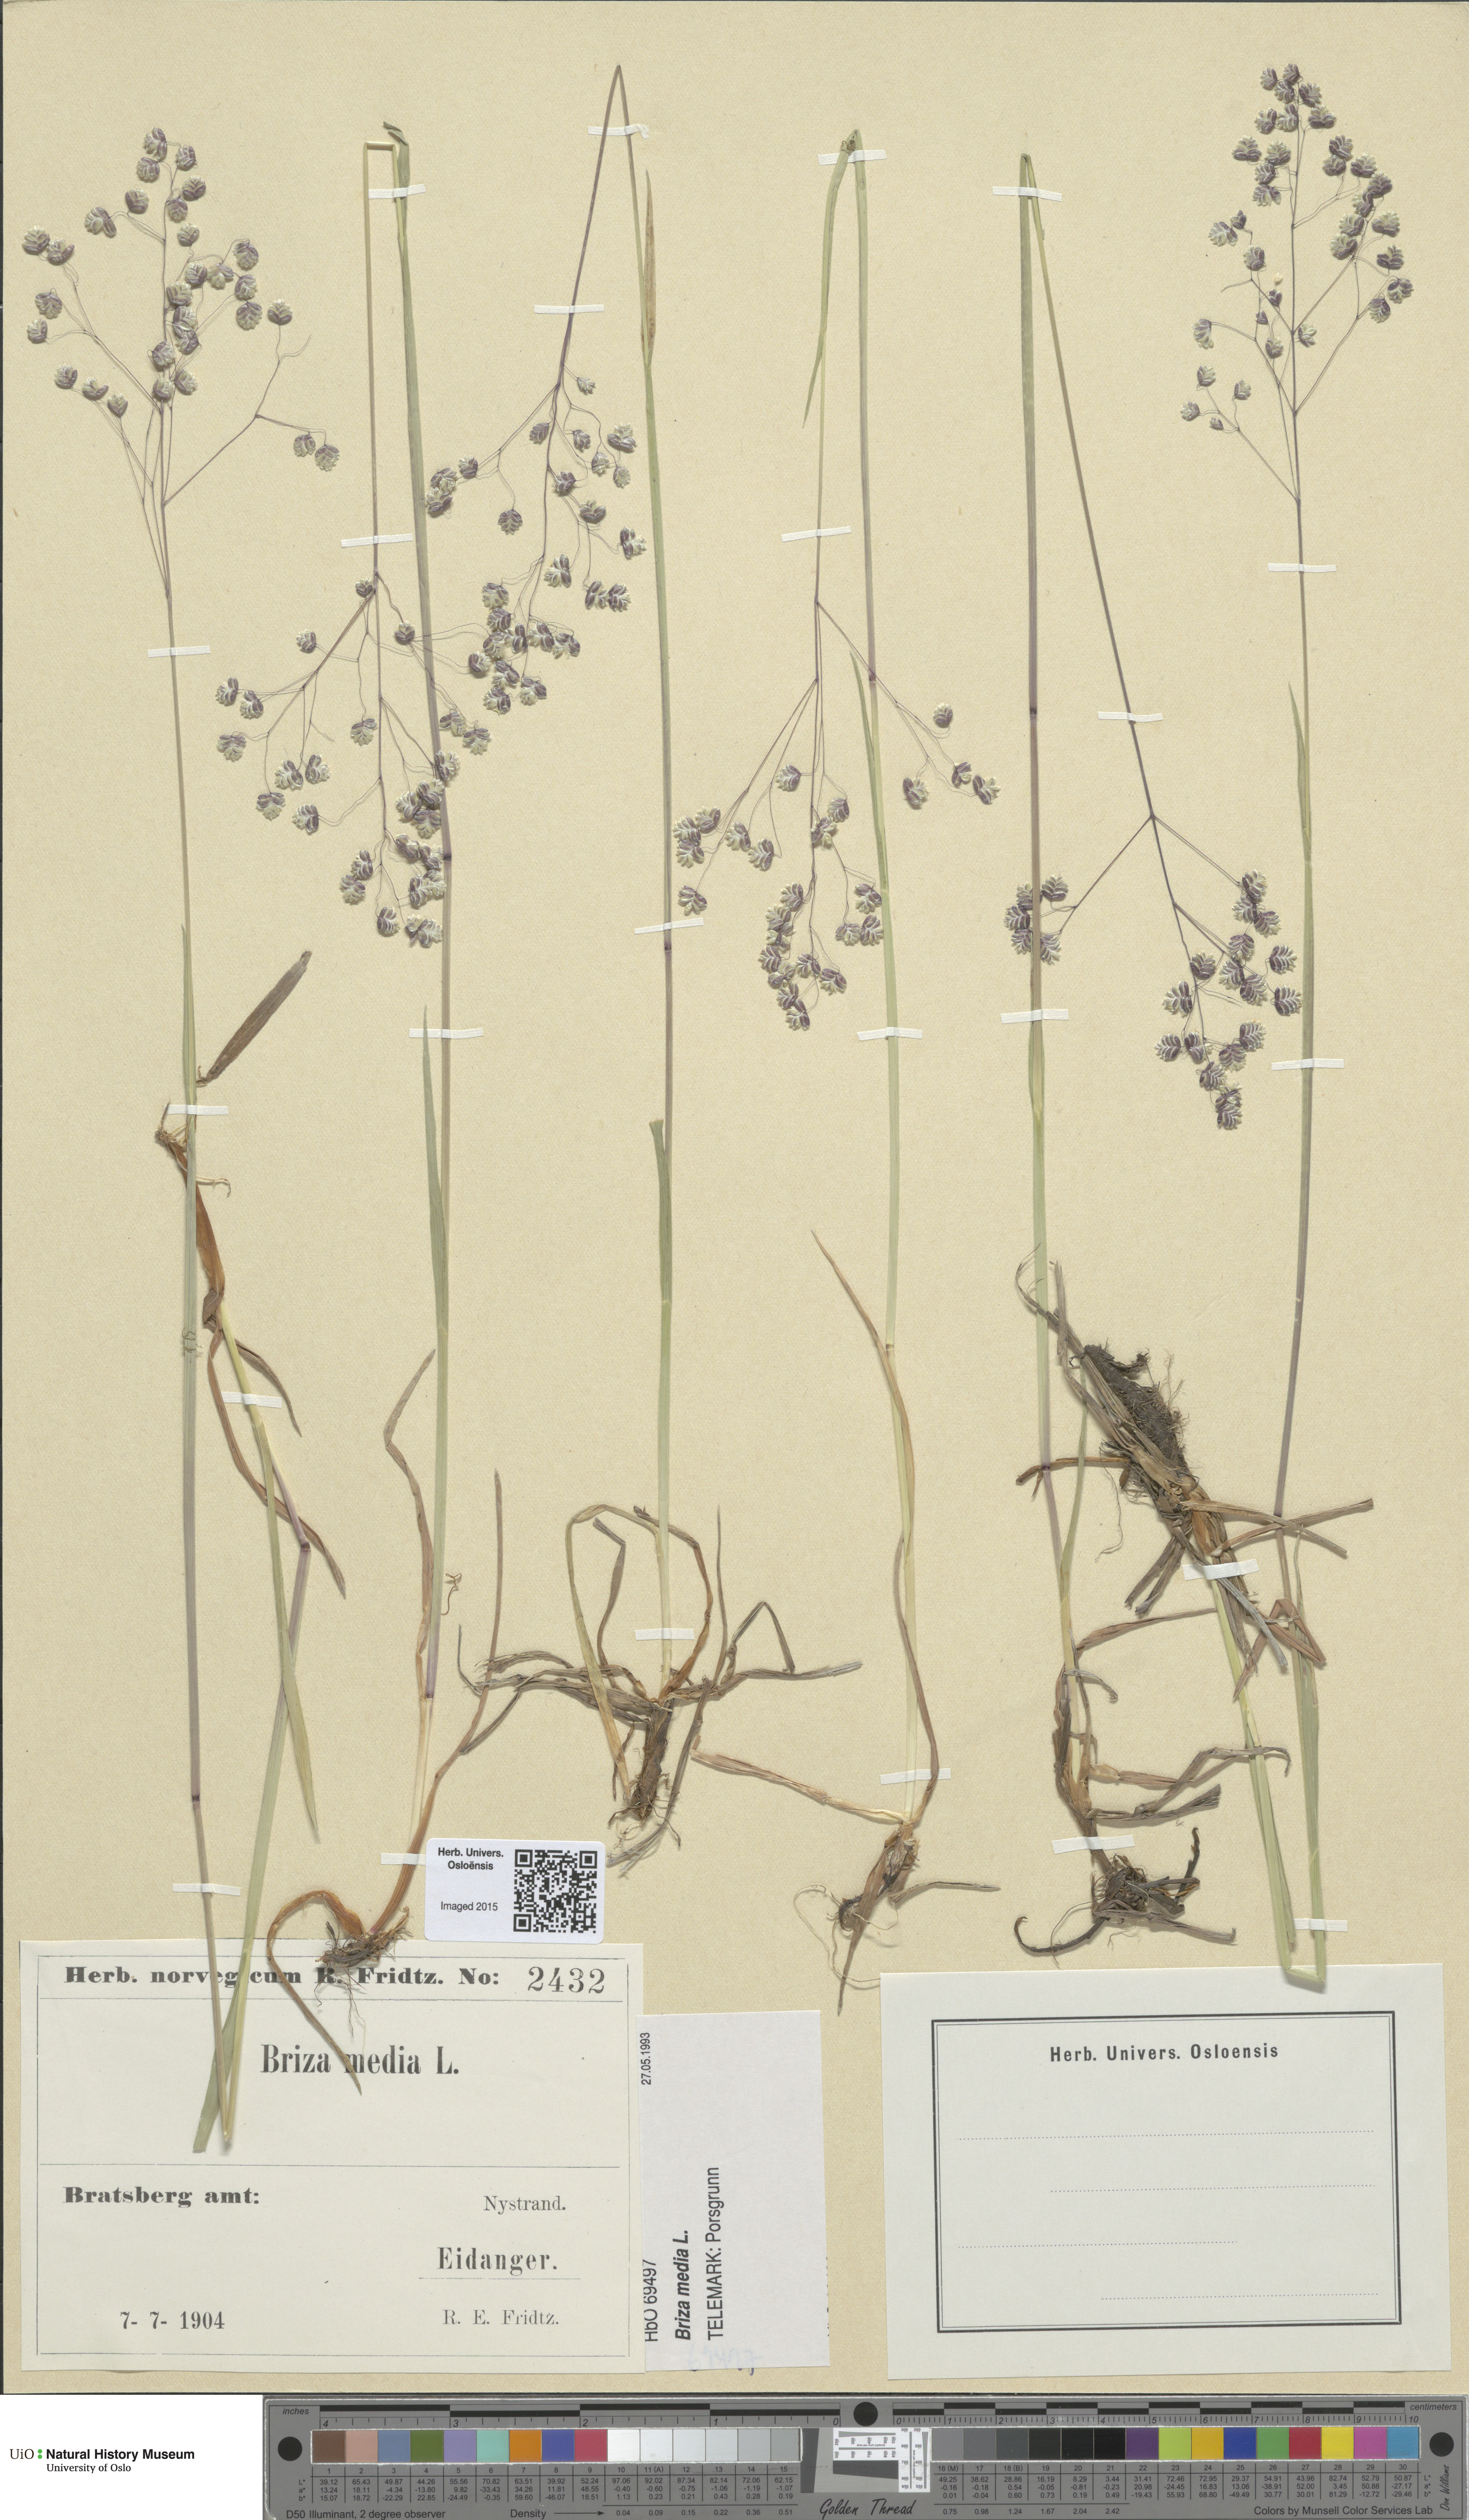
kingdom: Plantae
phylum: Tracheophyta
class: Liliopsida
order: Poales
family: Poaceae
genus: Briza
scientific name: Briza media
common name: Quaking grass
